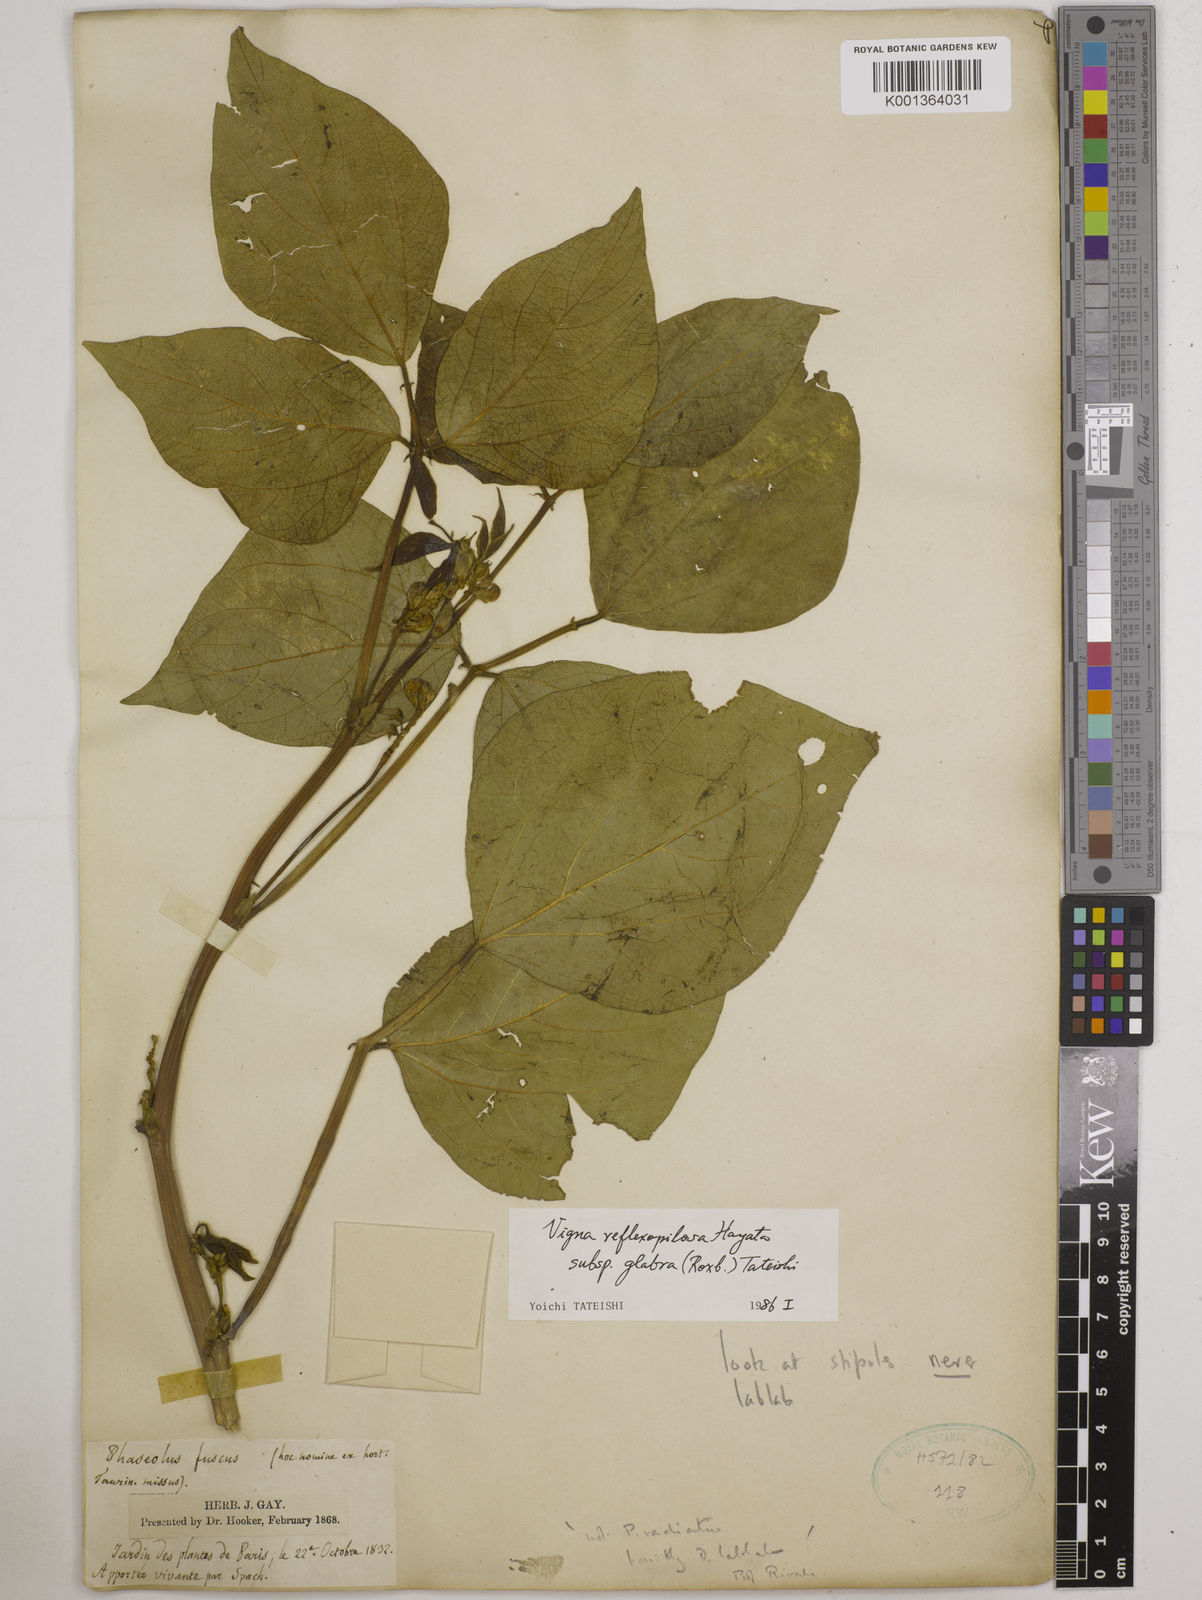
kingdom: Plantae
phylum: Tracheophyta
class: Magnoliopsida
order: Fabales
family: Fabaceae
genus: Vigna
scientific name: Vigna glabrescens
